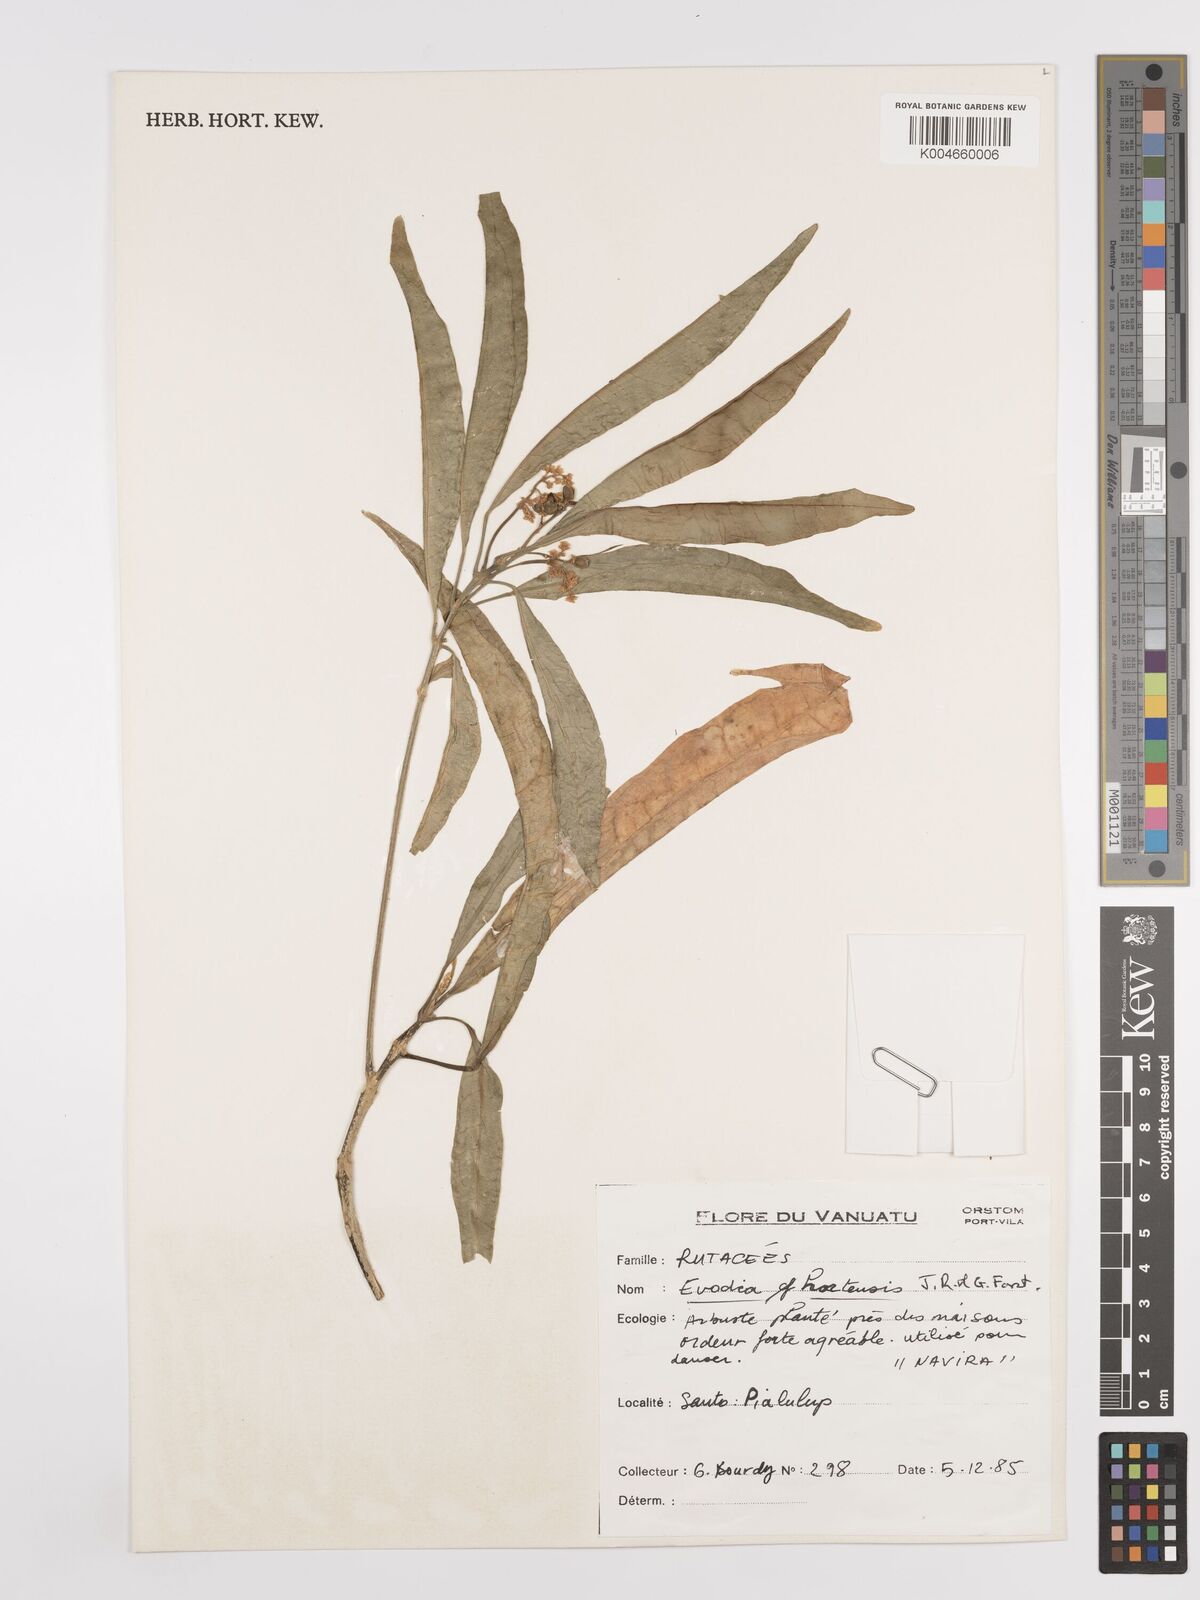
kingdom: Plantae
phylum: Tracheophyta
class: Magnoliopsida
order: Sapindales
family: Rutaceae
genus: Euodia
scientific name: Euodia hortensis
